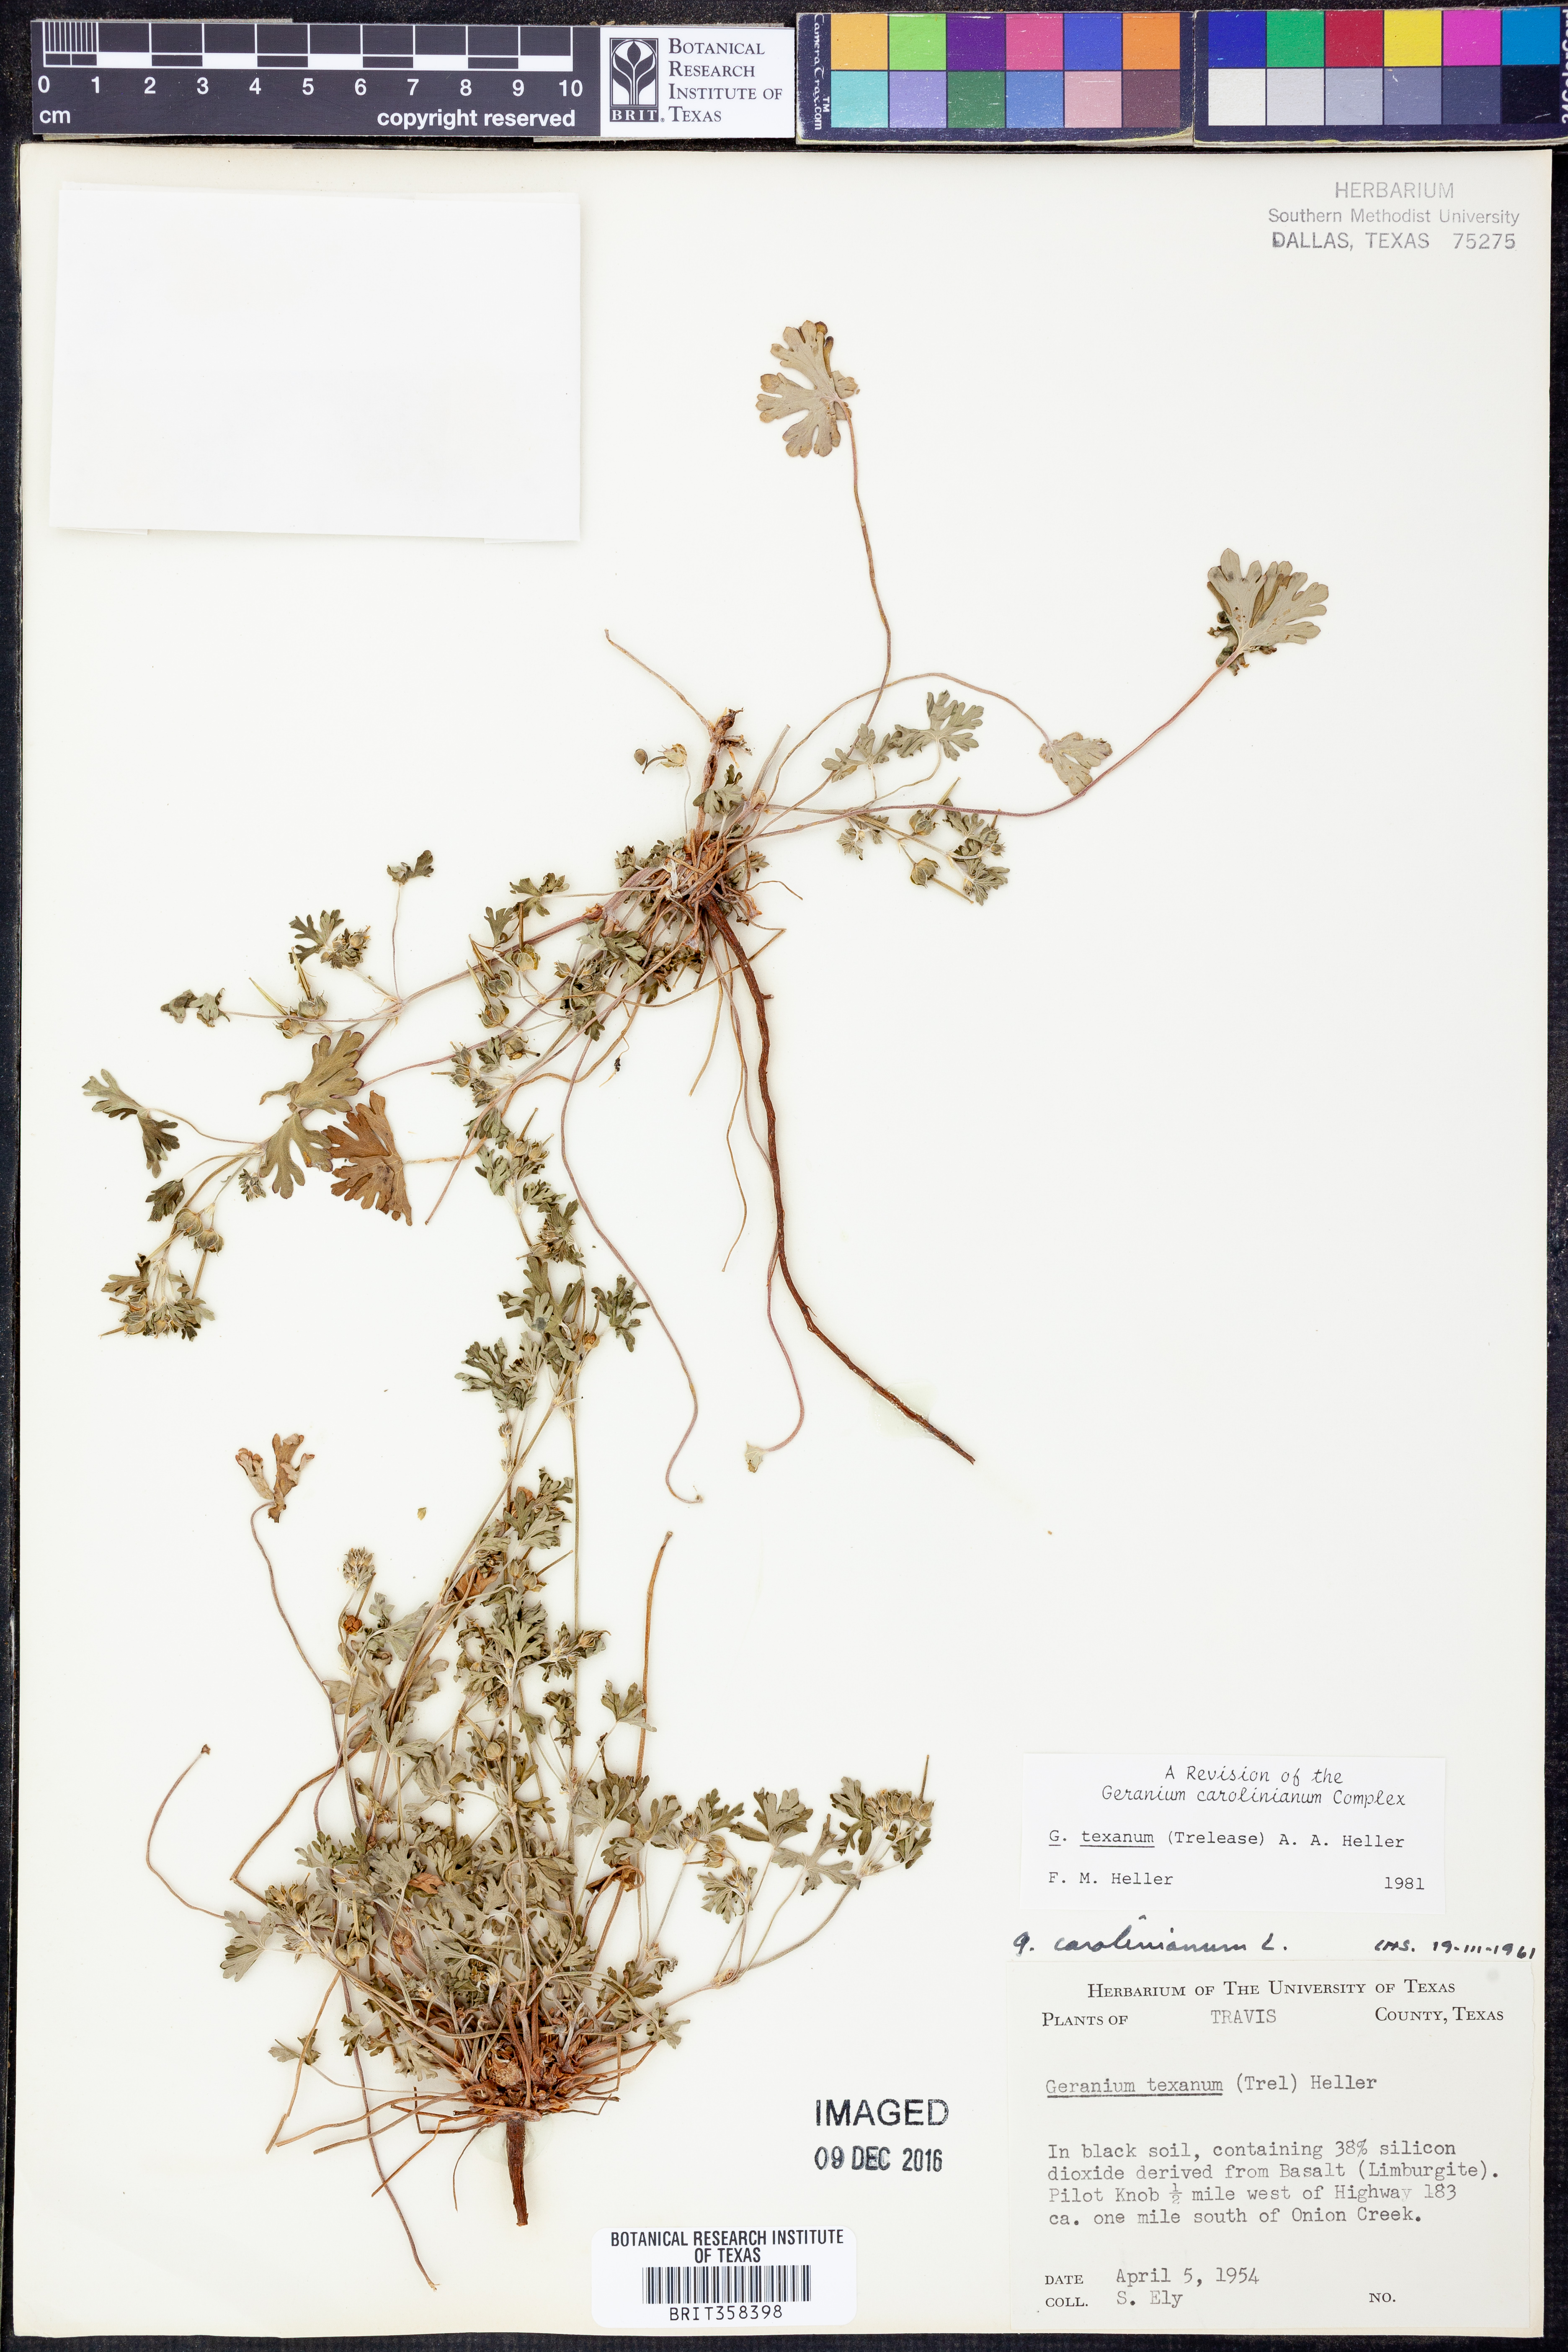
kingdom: Plantae
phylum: Tracheophyta
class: Magnoliopsida
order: Geraniales
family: Geraniaceae
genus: Geranium
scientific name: Geranium texanum
